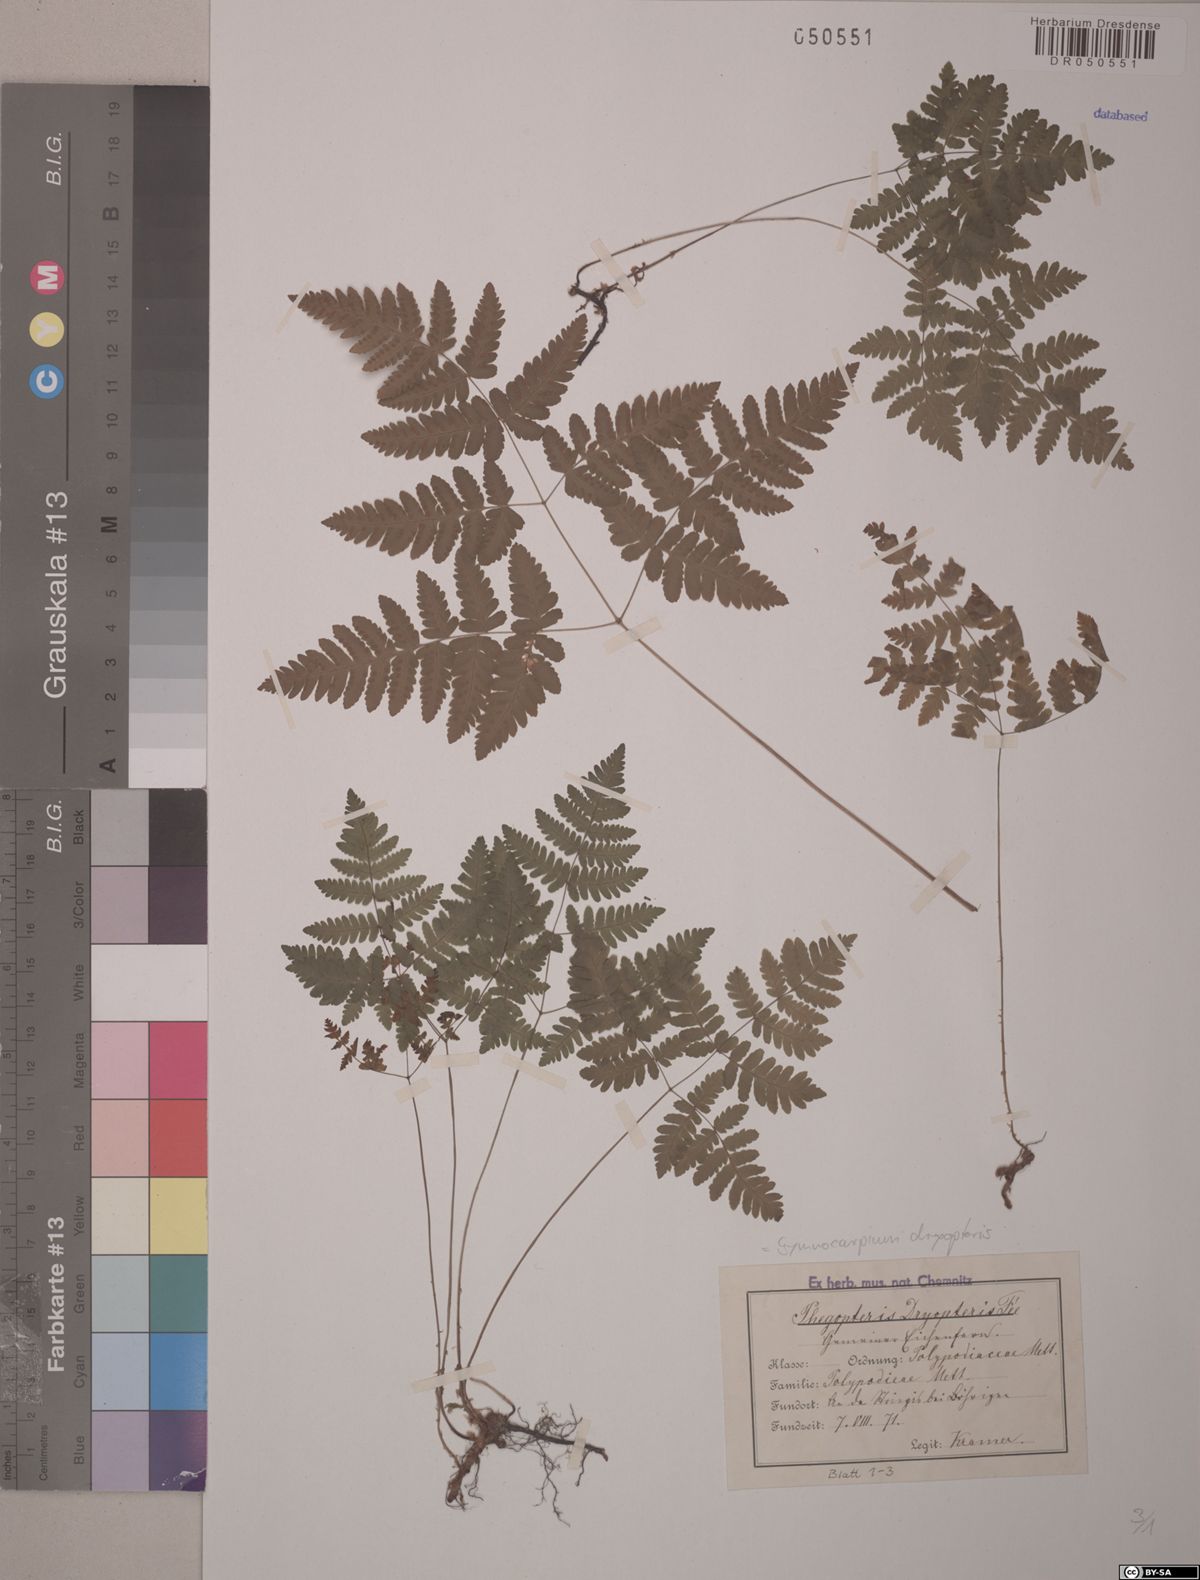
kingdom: Plantae
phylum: Tracheophyta
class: Polypodiopsida
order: Polypodiales
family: Cystopteridaceae
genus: Gymnocarpium
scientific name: Gymnocarpium dryopteris
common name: Oak fern
